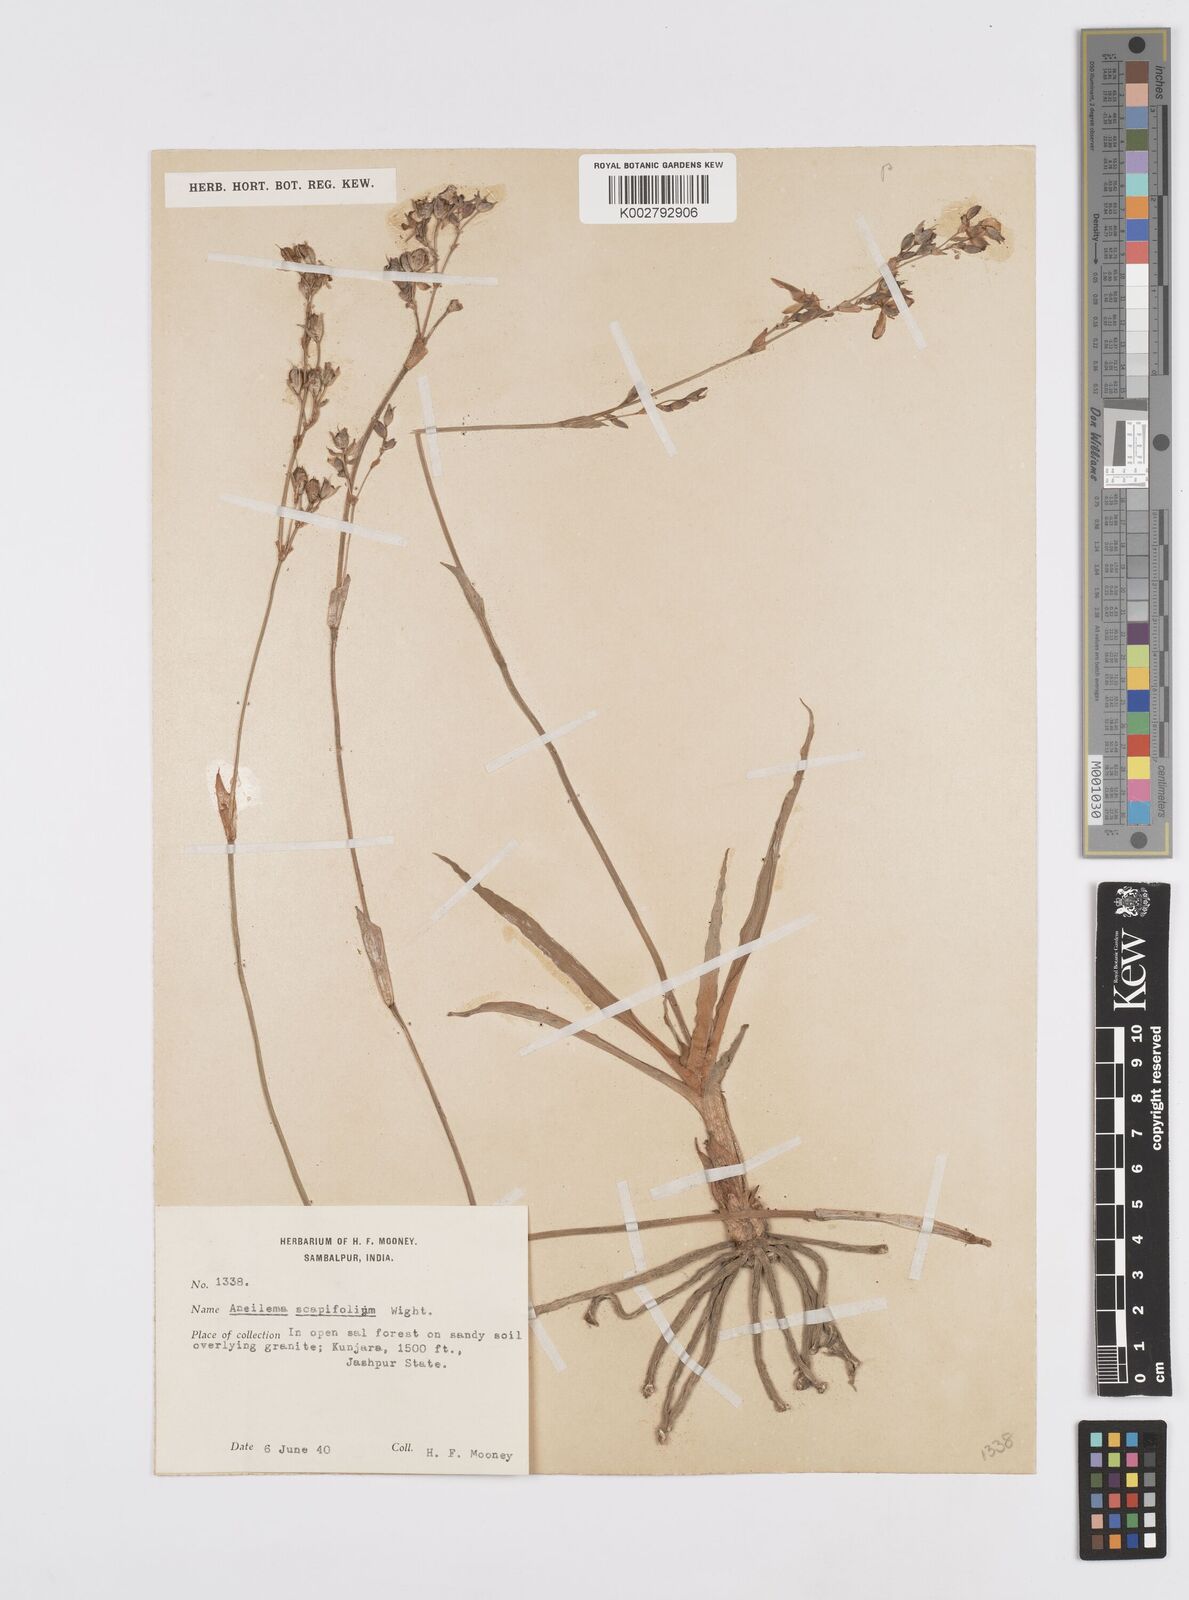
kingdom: Plantae
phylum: Tracheophyta
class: Liliopsida
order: Commelinales
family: Commelinaceae
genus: Murdannia
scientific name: Murdannia edulis
